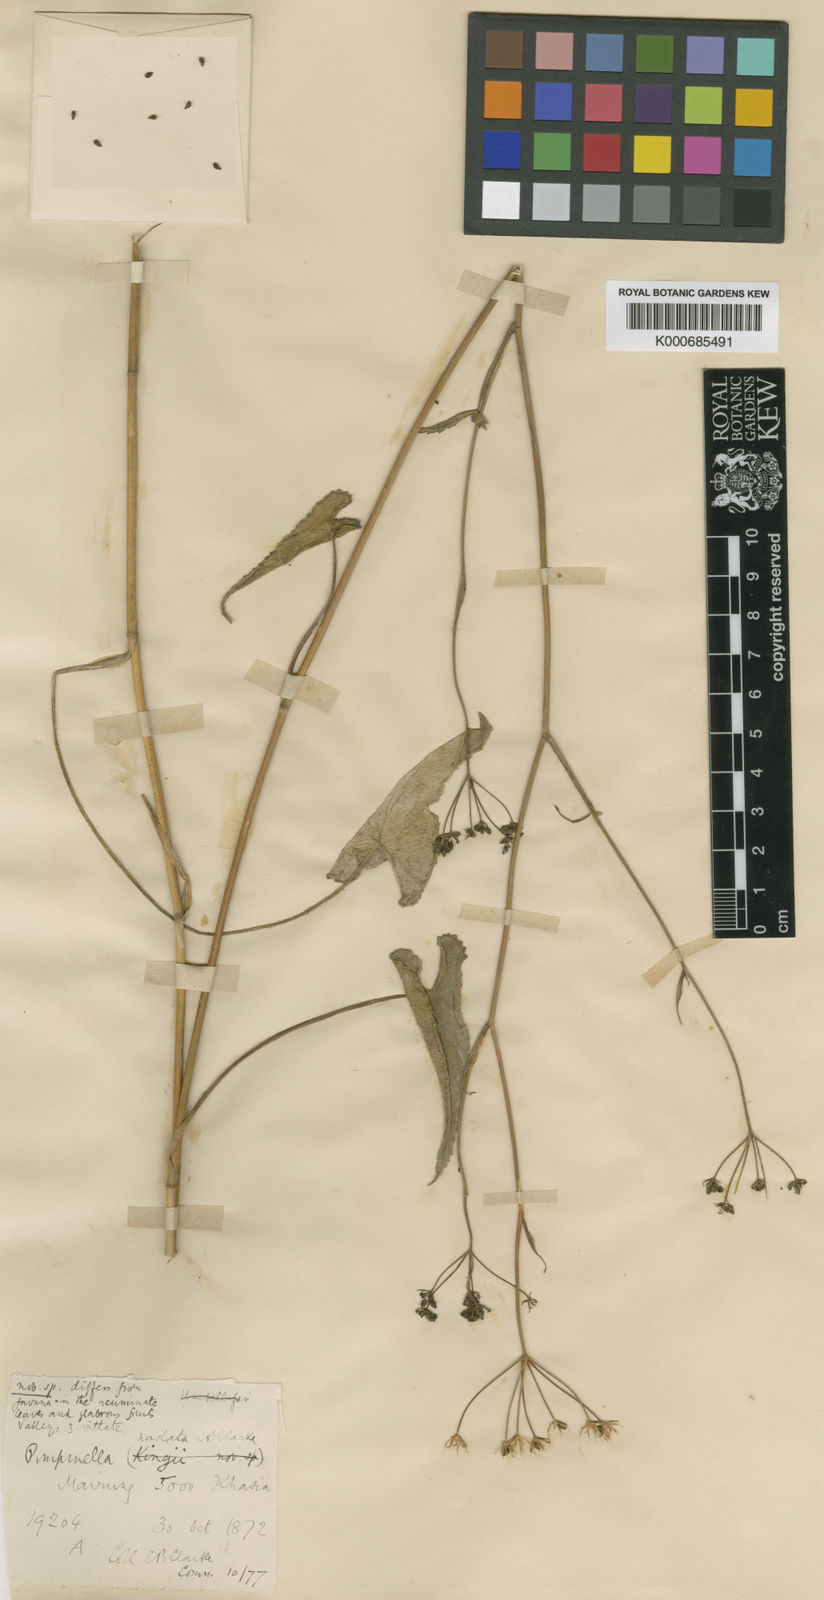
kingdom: Plantae
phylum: Tracheophyta
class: Magnoliopsida
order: Apiales
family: Apiaceae
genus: Pimpinella
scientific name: Pimpinella hastata
